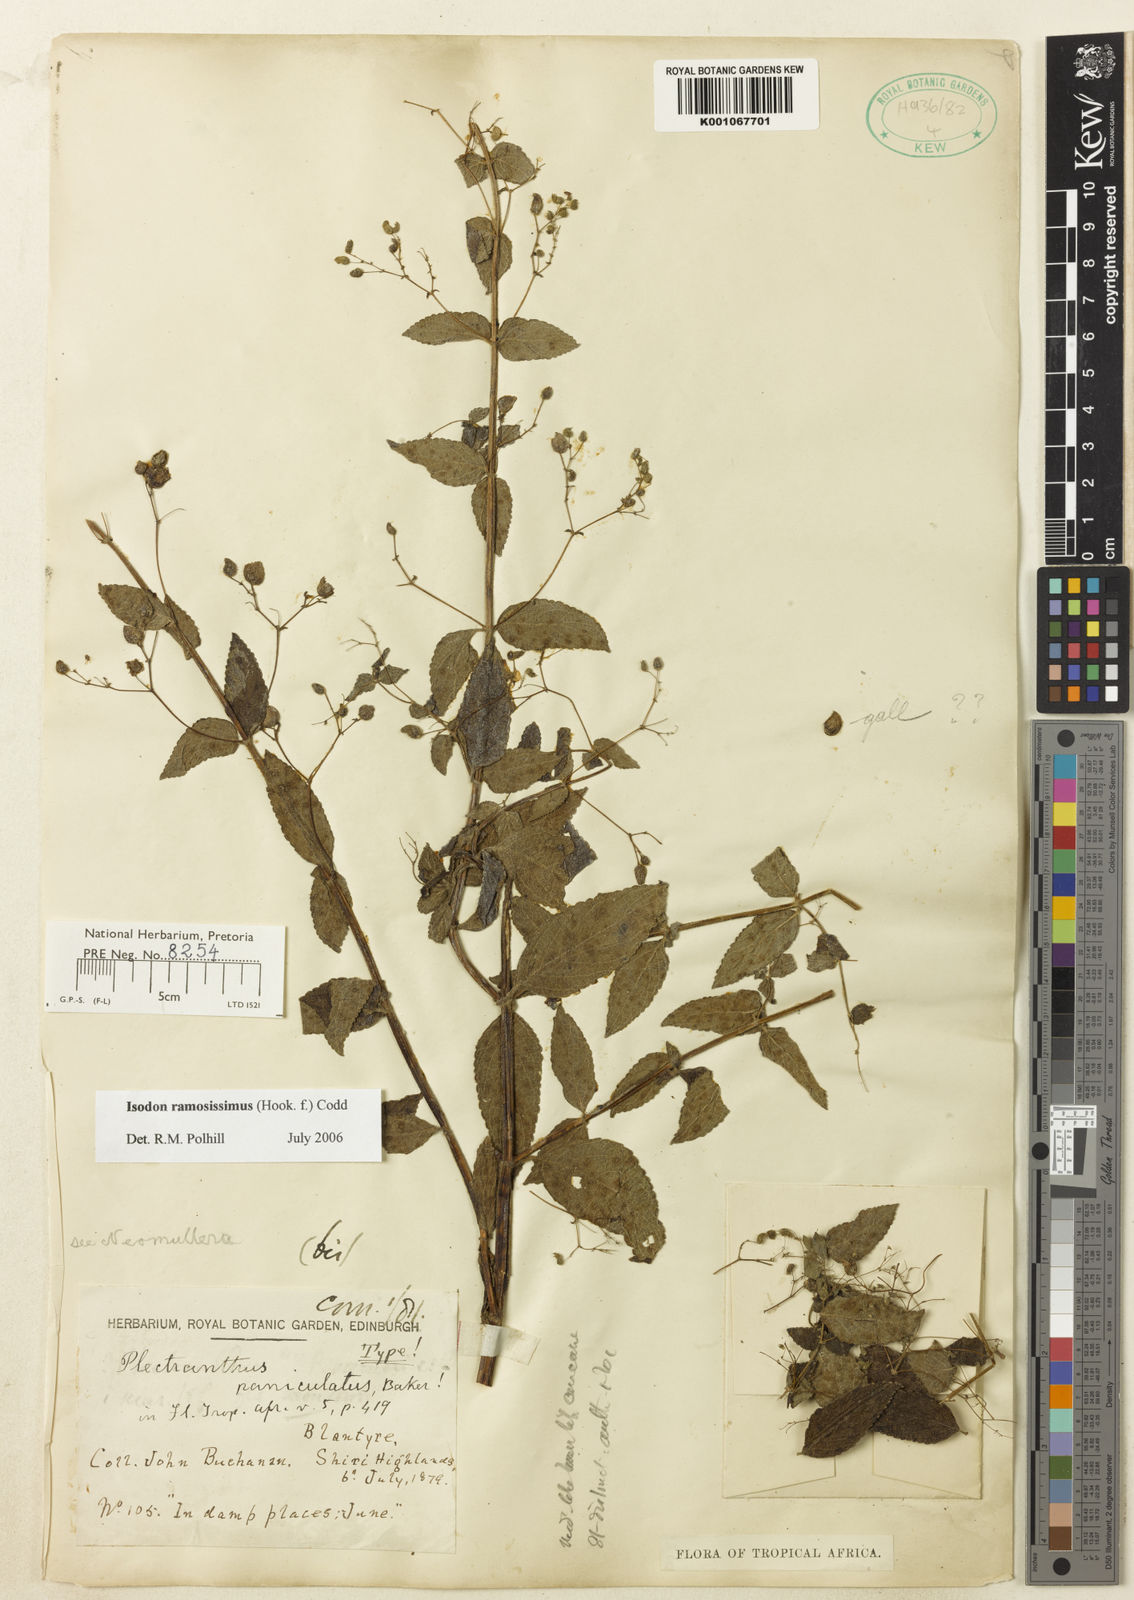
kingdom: Plantae
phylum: Tracheophyta
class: Magnoliopsida
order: Lamiales
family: Lamiaceae
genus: Isodon
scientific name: Isodon ramosissimus
